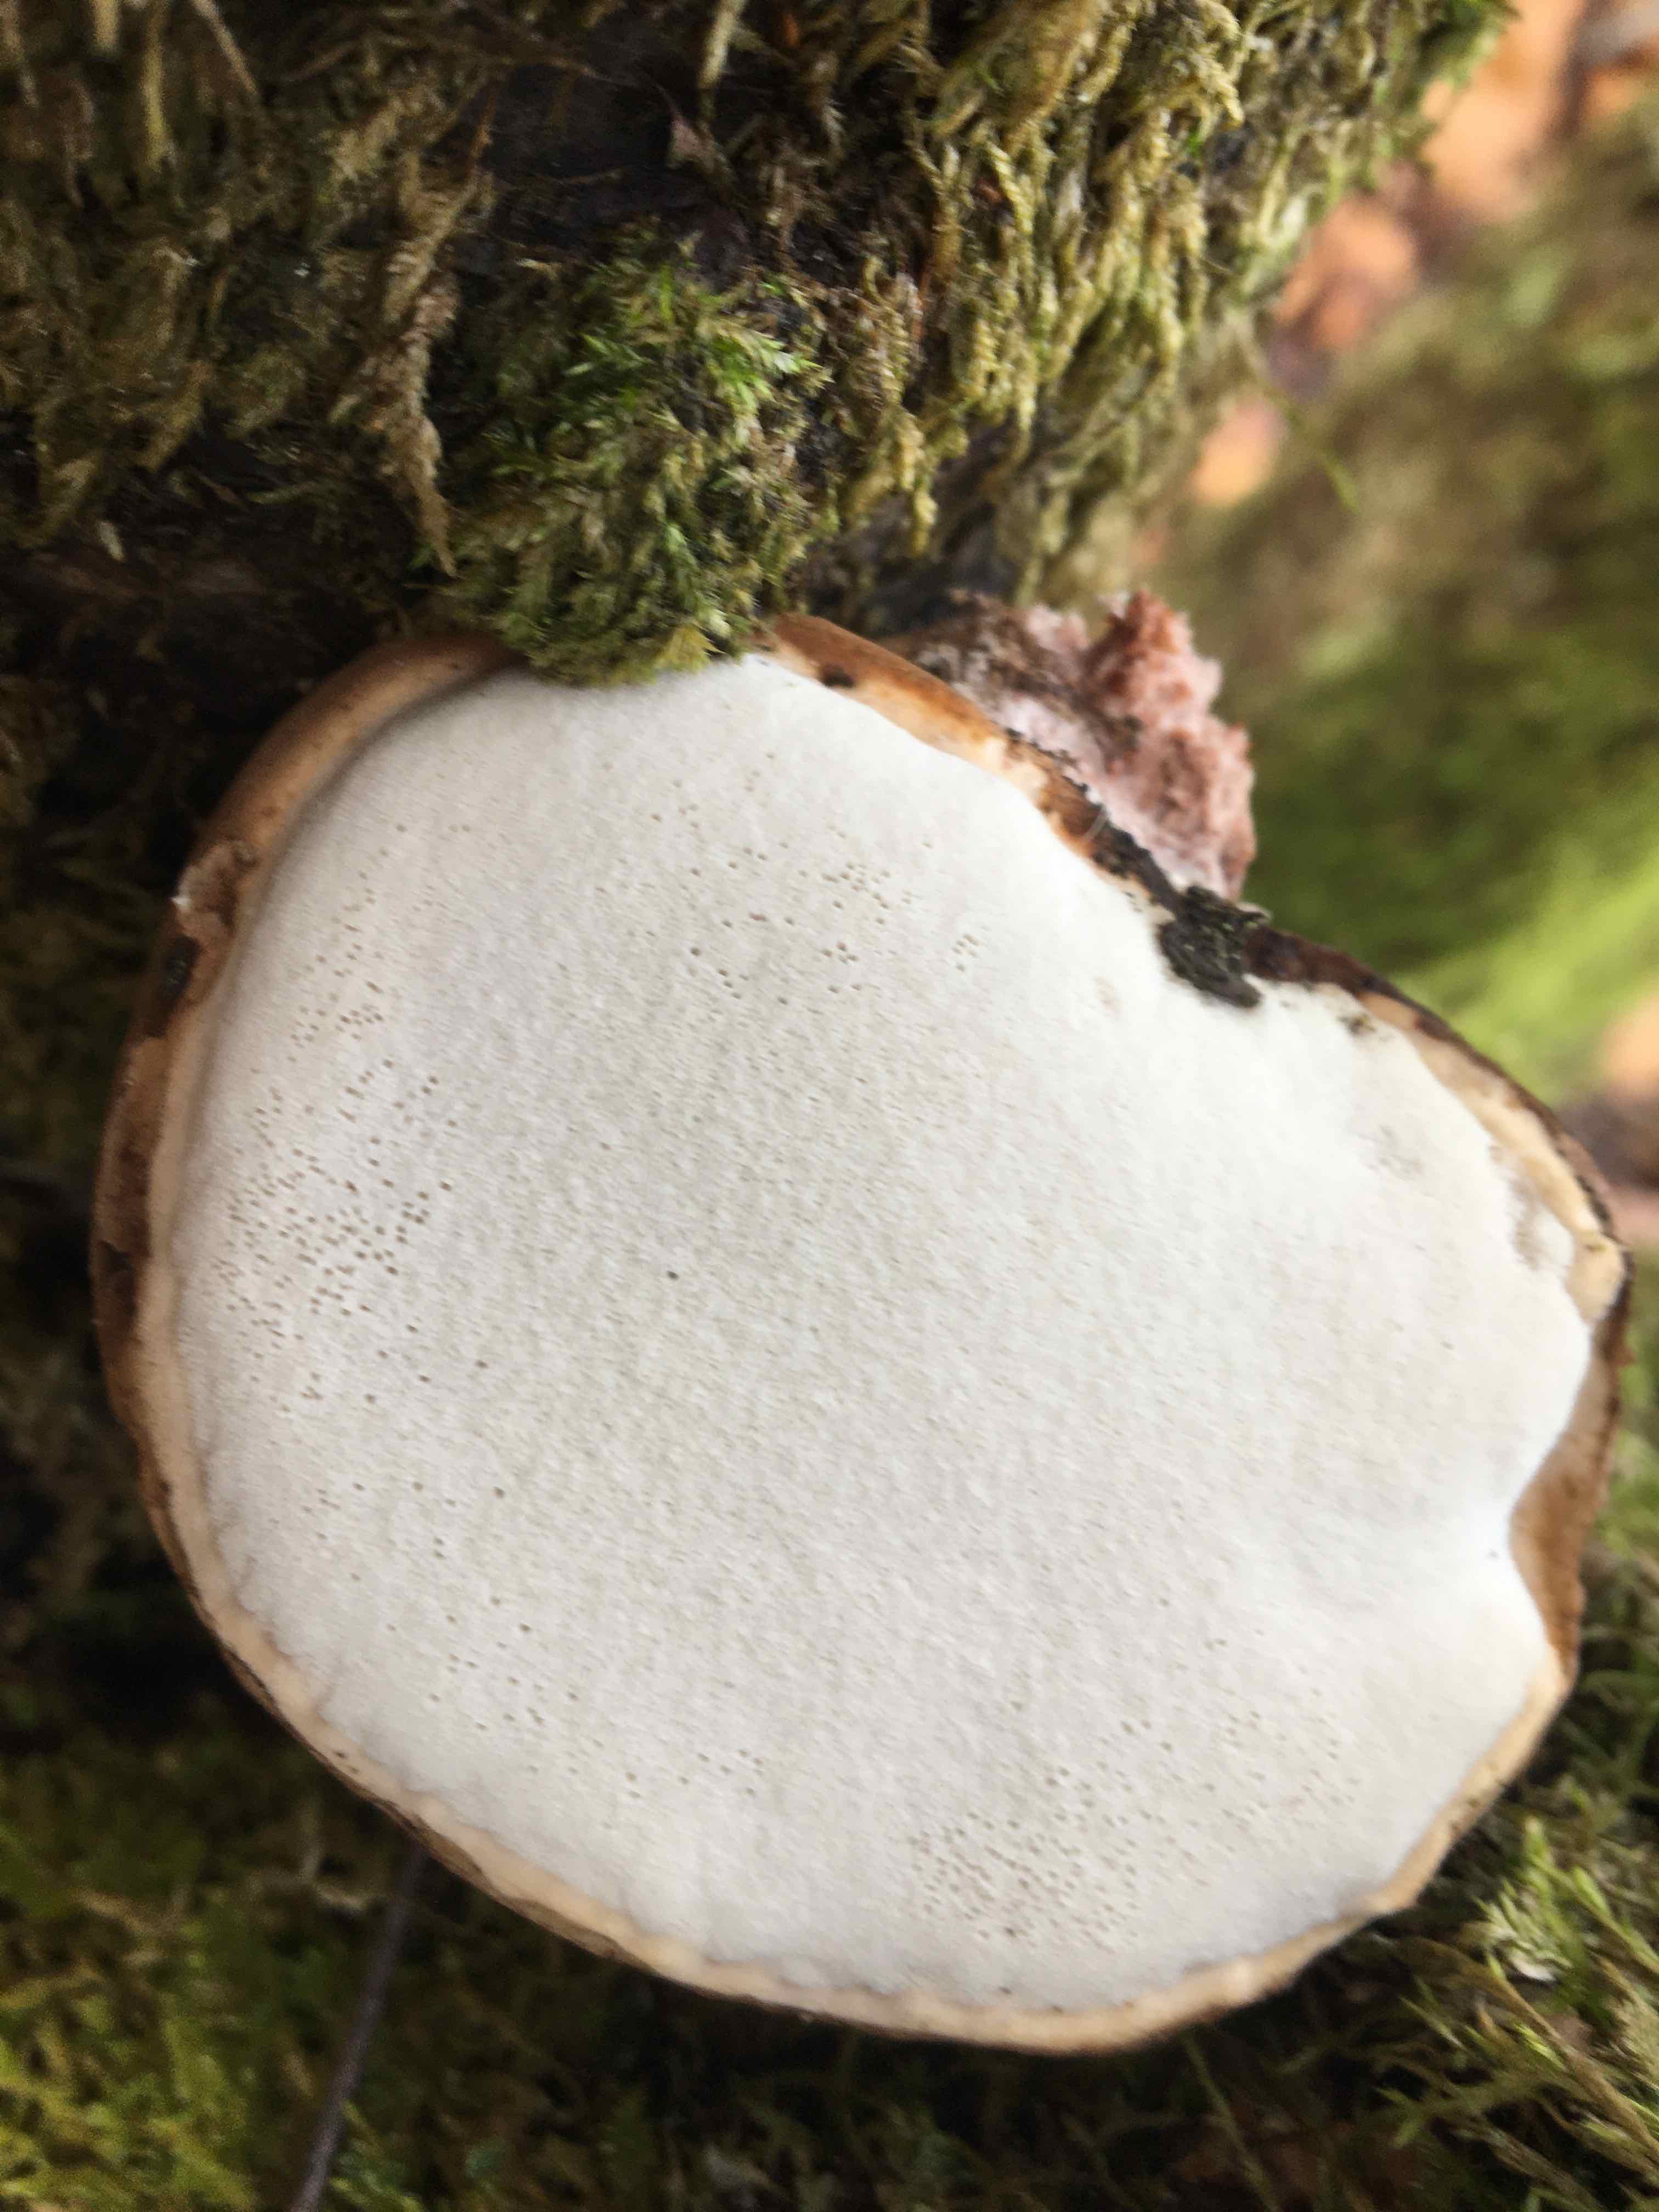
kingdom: Fungi
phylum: Basidiomycota
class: Agaricomycetes
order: Polyporales
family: Fomitopsidaceae
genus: Fomitopsis
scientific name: Fomitopsis betulina
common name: birkeporesvamp
